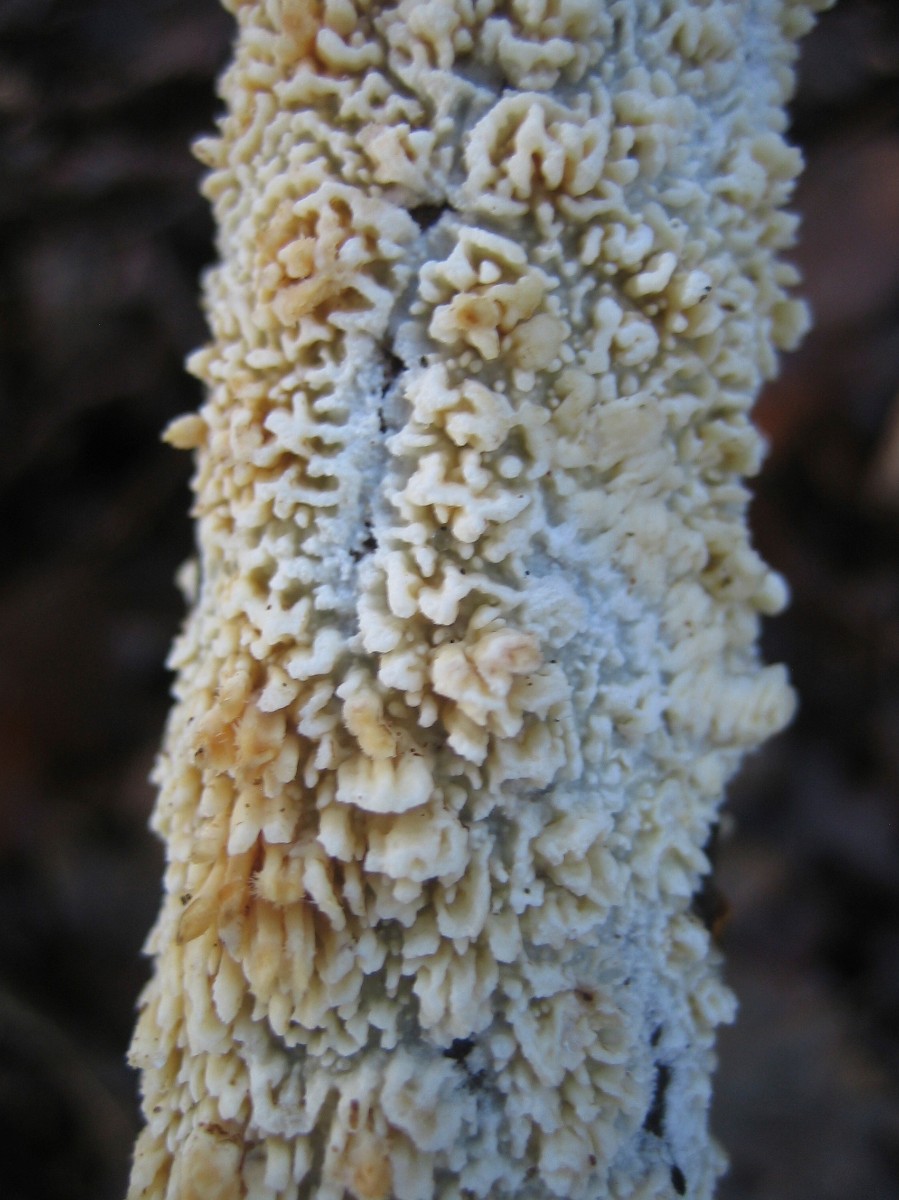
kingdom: Fungi
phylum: Basidiomycota
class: Agaricomycetes
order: Hymenochaetales
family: Schizoporaceae
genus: Xylodon
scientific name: Xylodon radula
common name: grovtandet kalkskind
